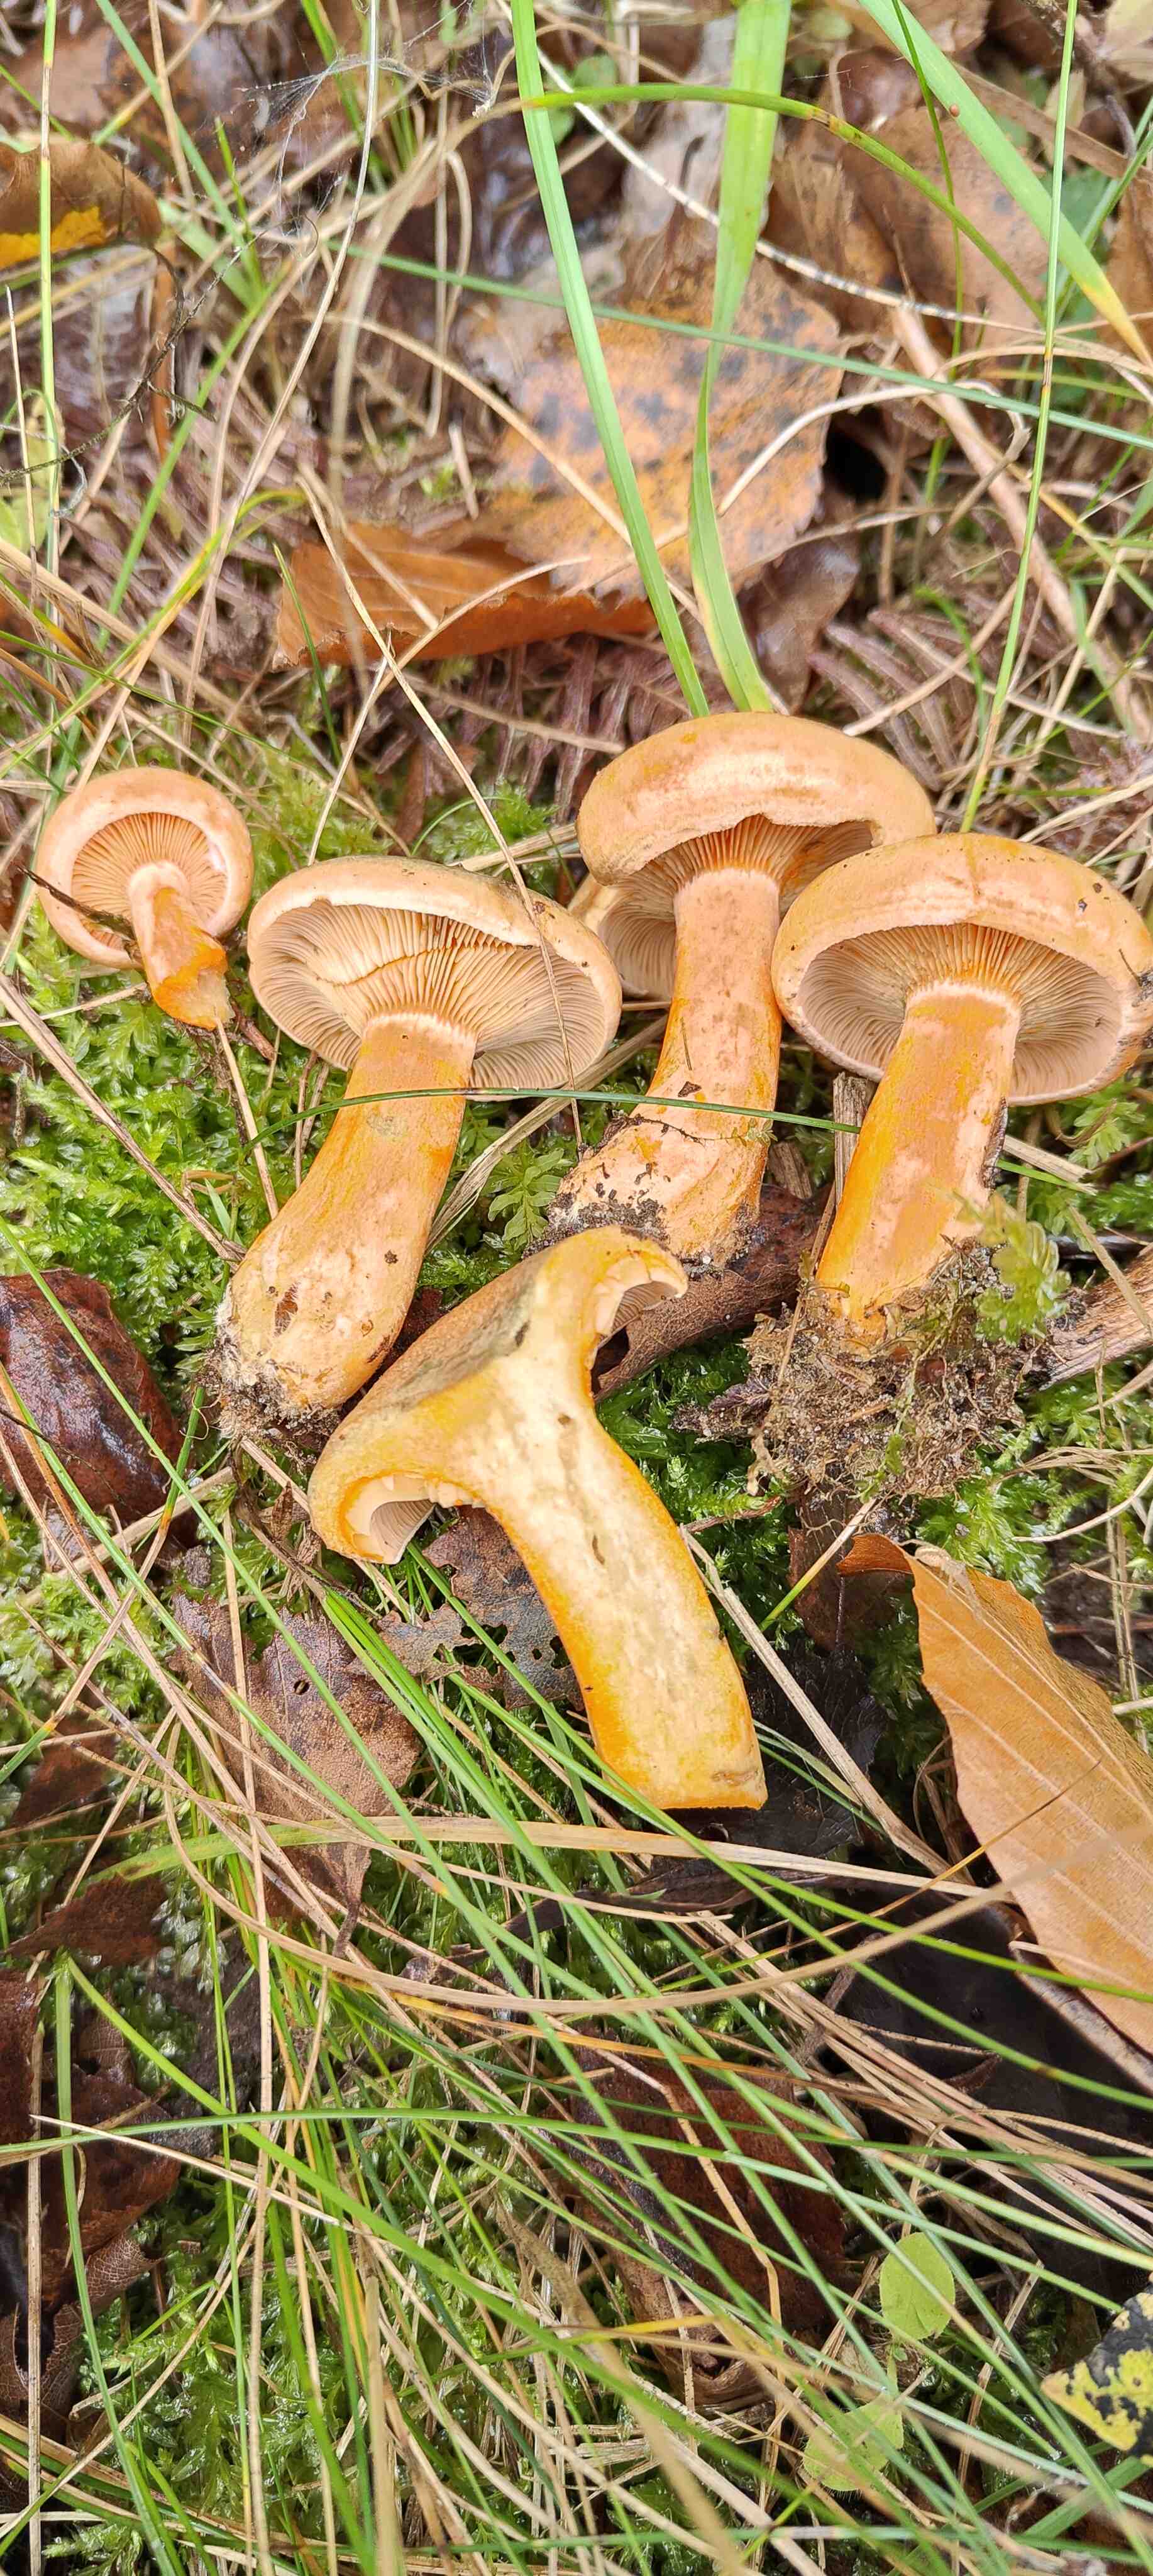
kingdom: Fungi
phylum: Basidiomycota
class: Agaricomycetes
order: Russulales
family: Russulaceae
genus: Lactarius
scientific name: Lactarius deterrimus
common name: gran-mælkehat
